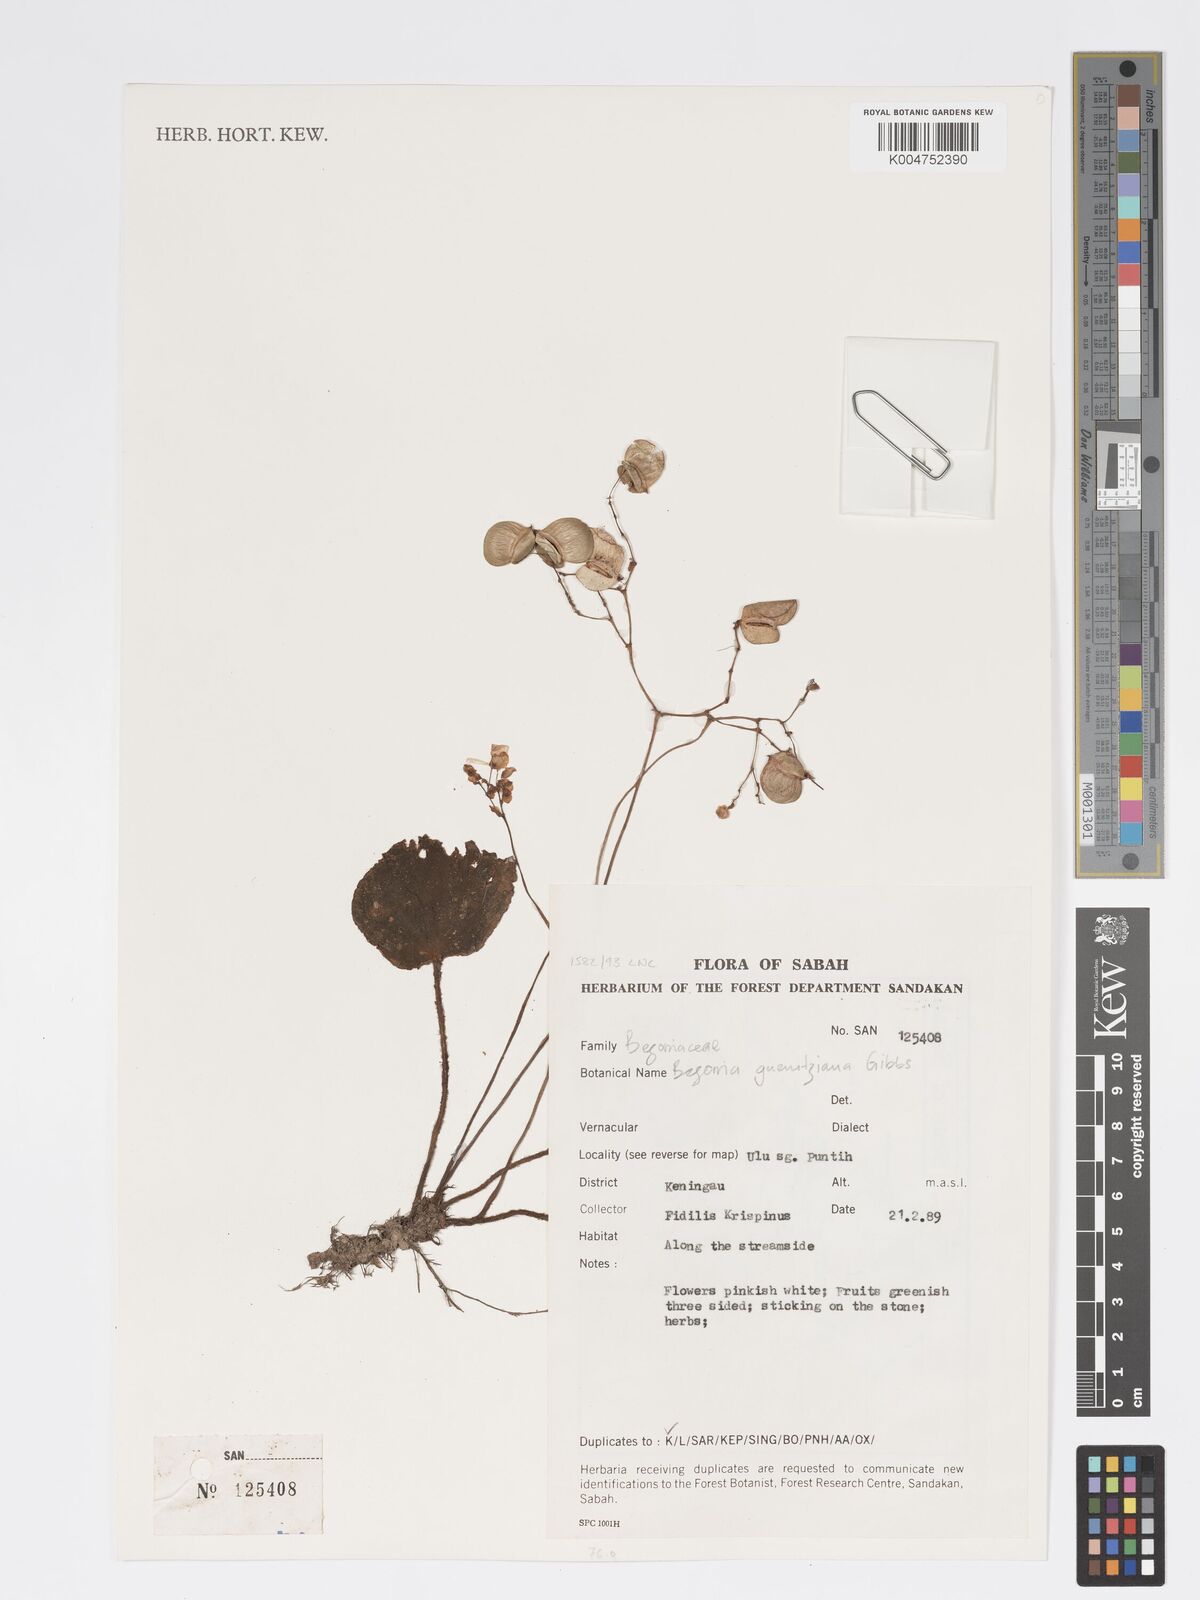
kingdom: Plantae
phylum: Tracheophyta
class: Magnoliopsida
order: Cucurbitales
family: Begoniaceae
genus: Begonia
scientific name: Begonia gueritziana
